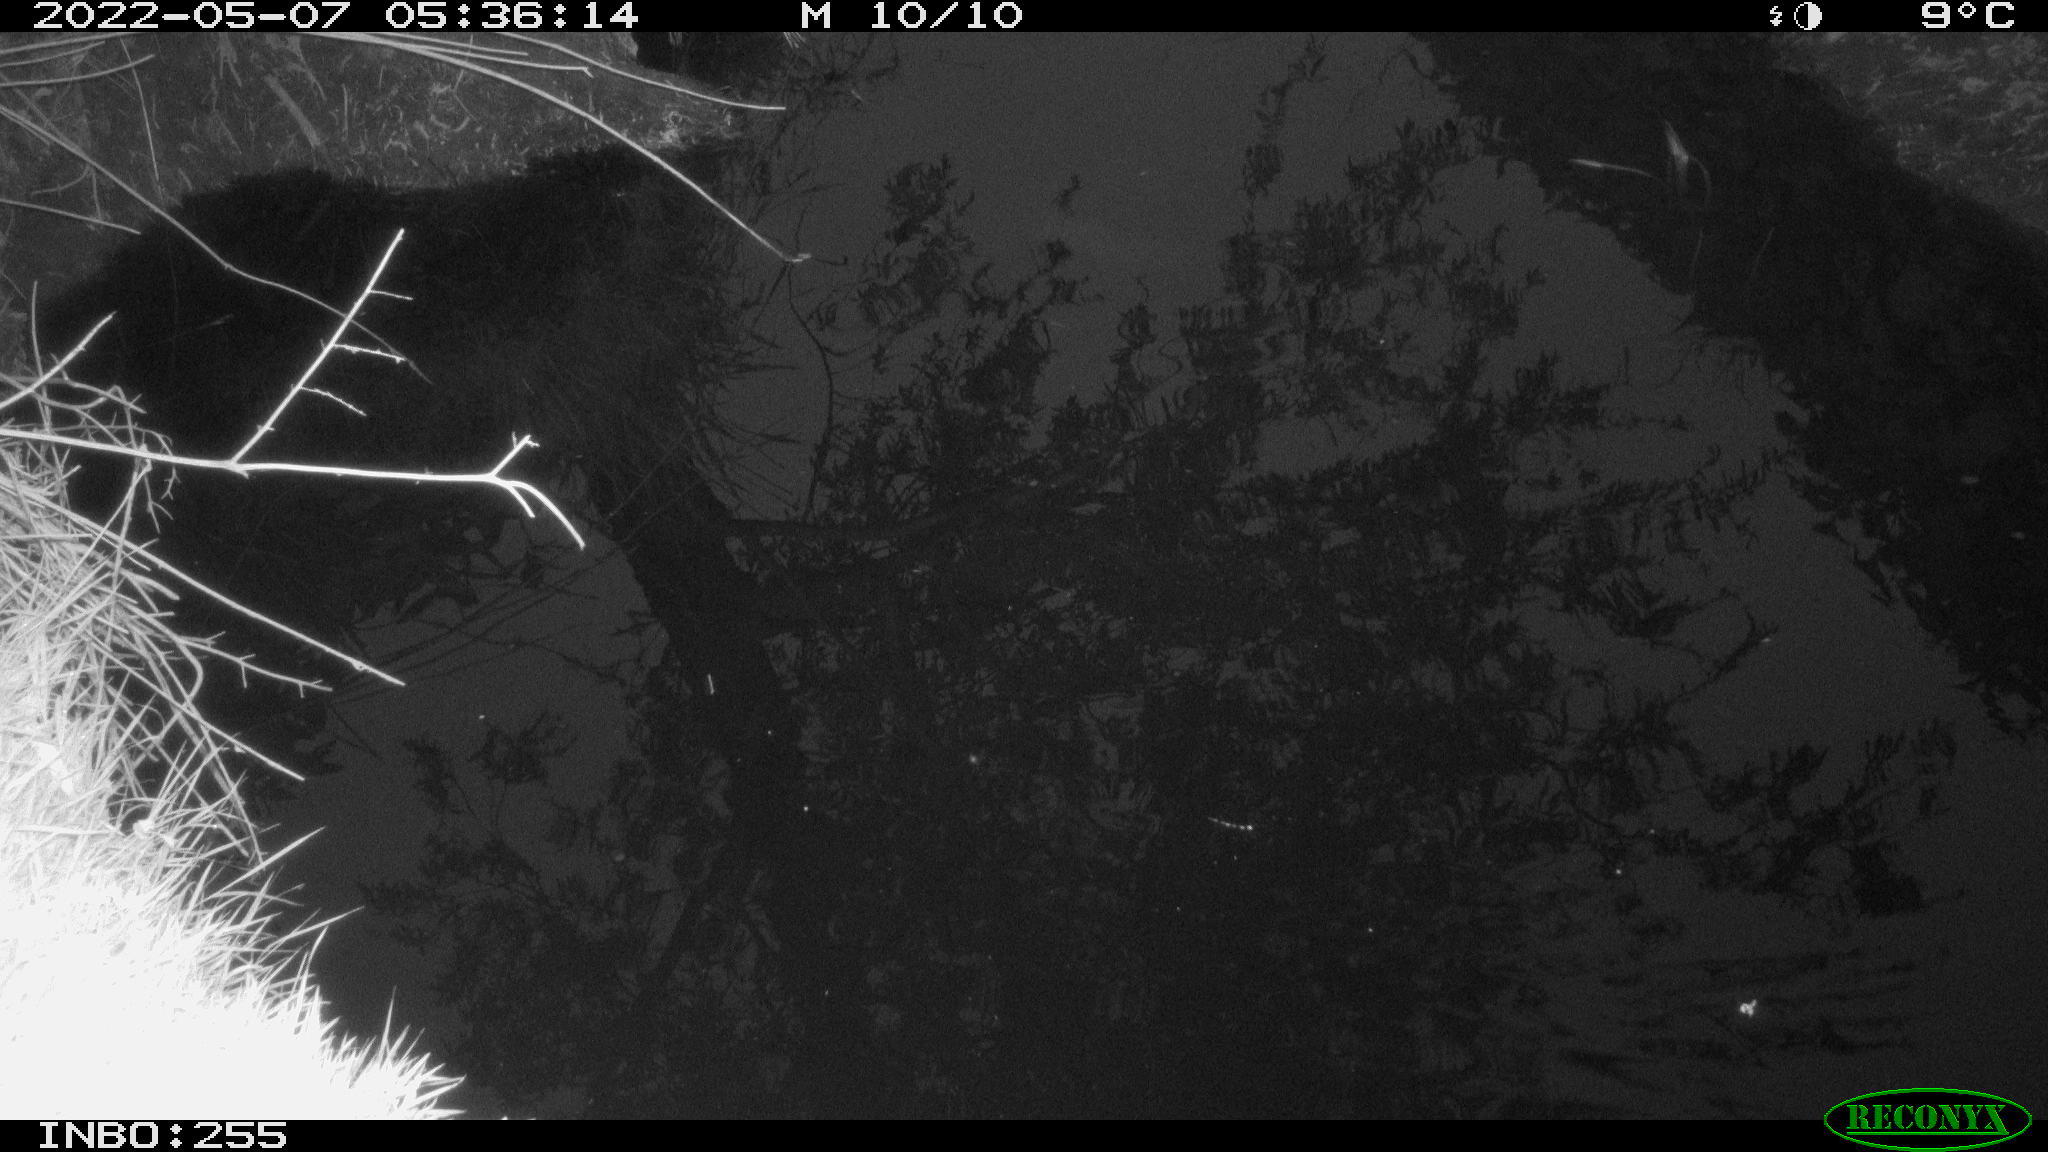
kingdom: Animalia
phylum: Chordata
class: Aves
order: Anseriformes
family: Anatidae
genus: Anas
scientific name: Anas platyrhynchos
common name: Mallard
